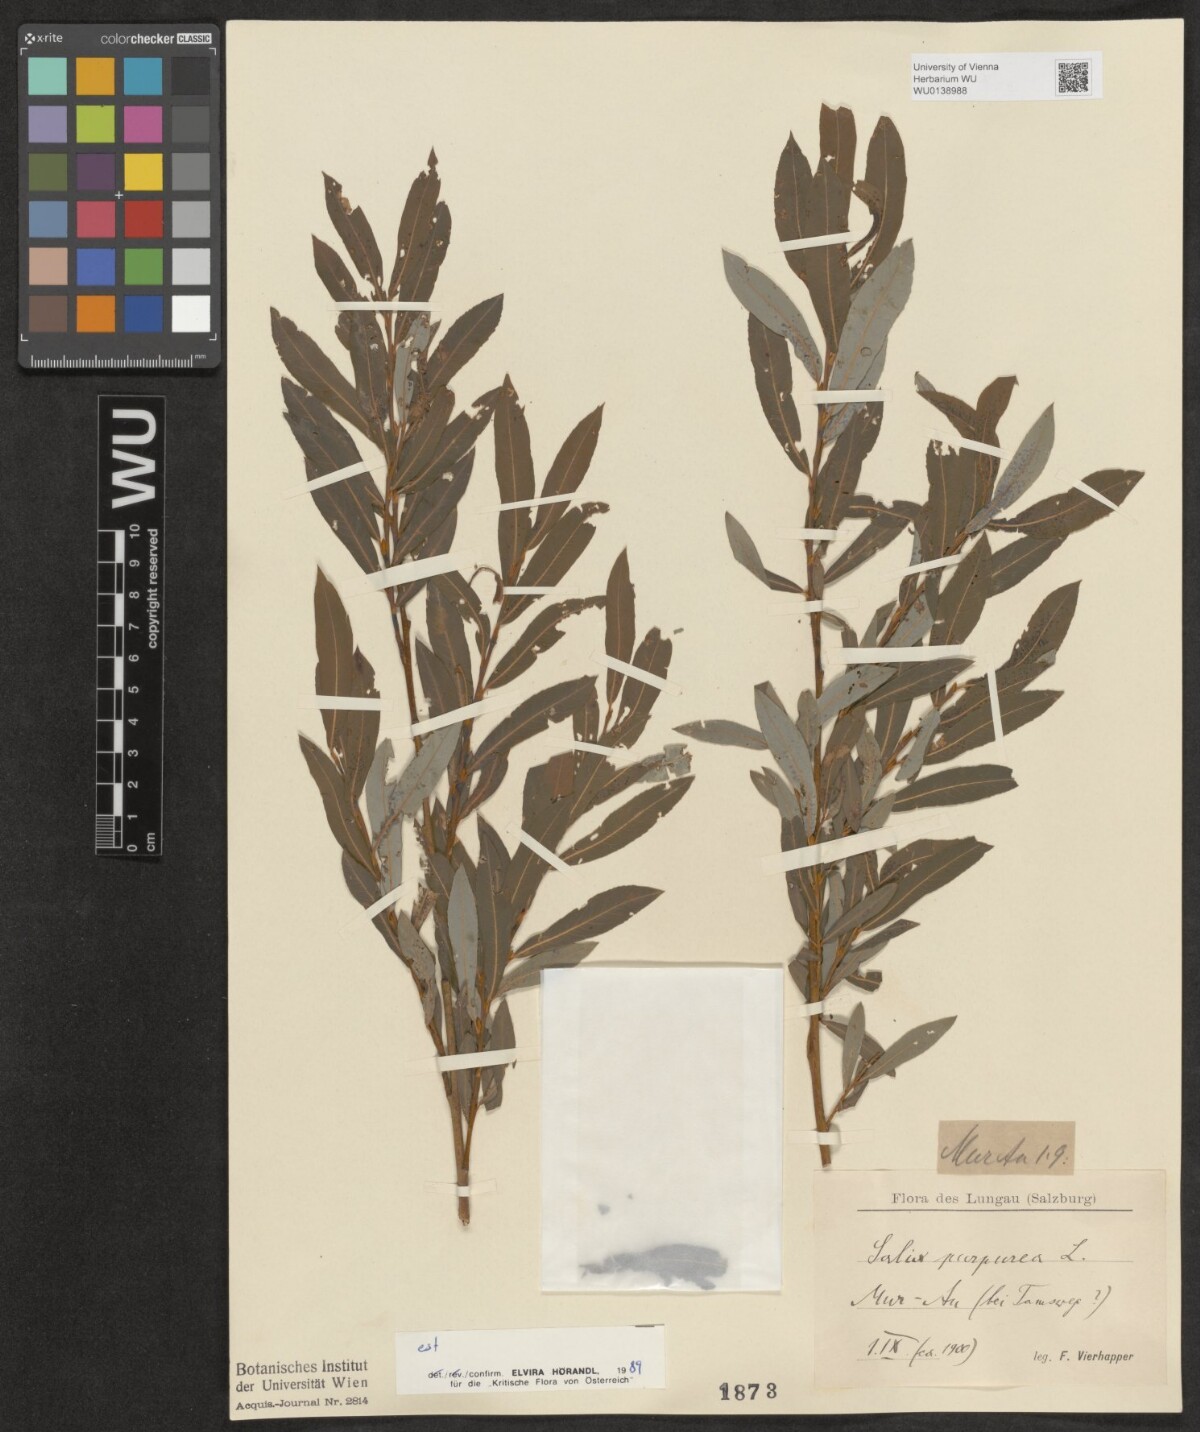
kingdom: Plantae
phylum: Tracheophyta
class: Magnoliopsida
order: Malpighiales
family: Salicaceae
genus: Salix
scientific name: Salix purpurea
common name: Purple willow
